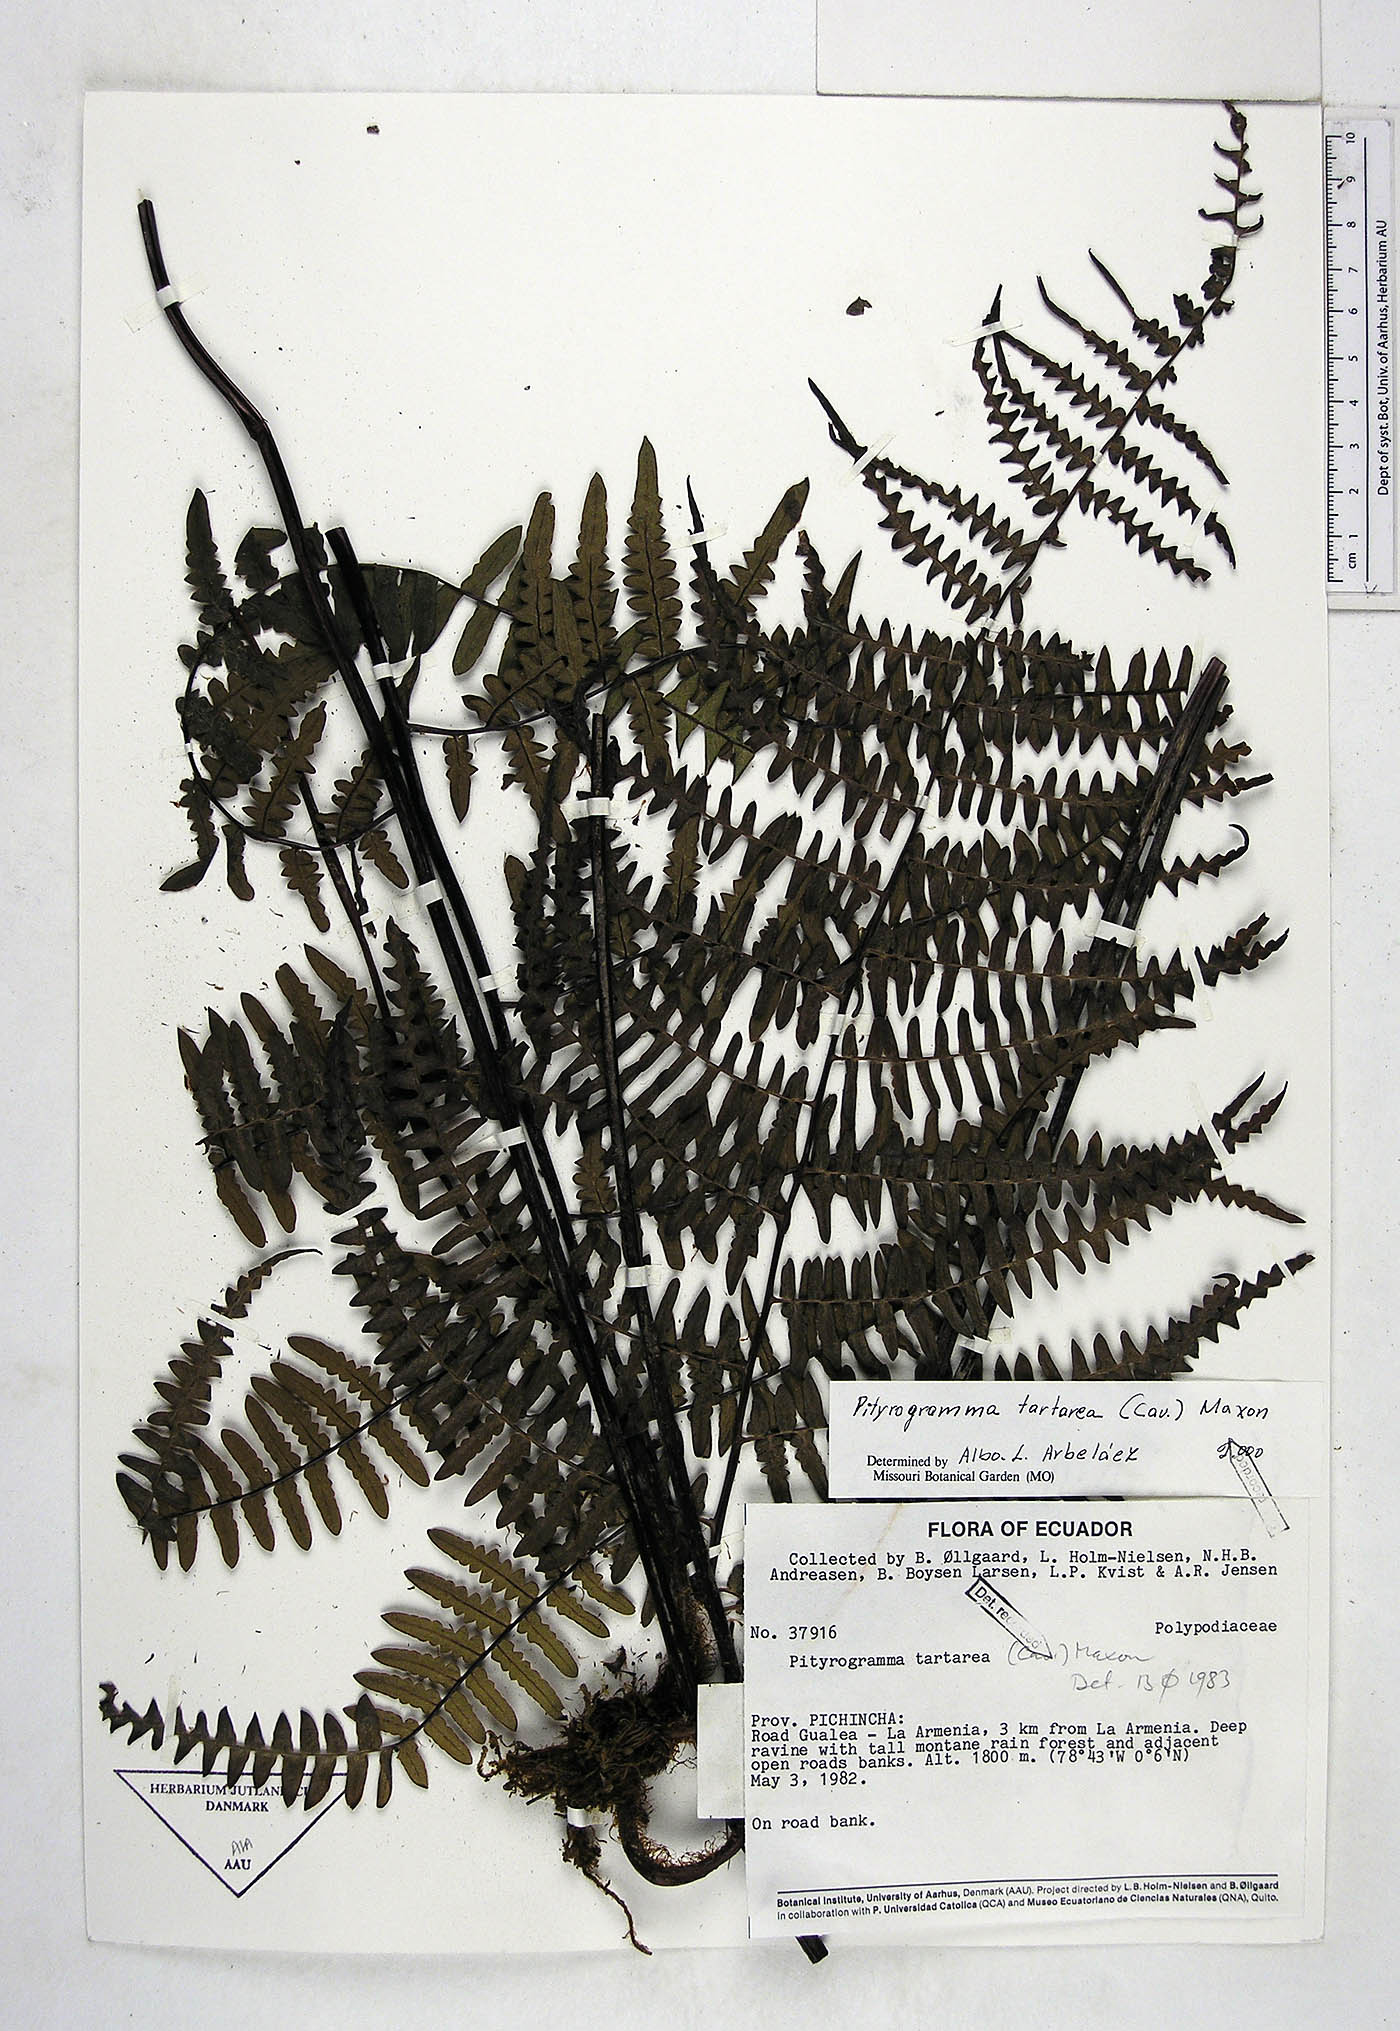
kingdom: Plantae
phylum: Tracheophyta
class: Lycopodiopsida
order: Selaginellales
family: Selaginellaceae
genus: Selaginella
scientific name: Selaginella hartwegiana
